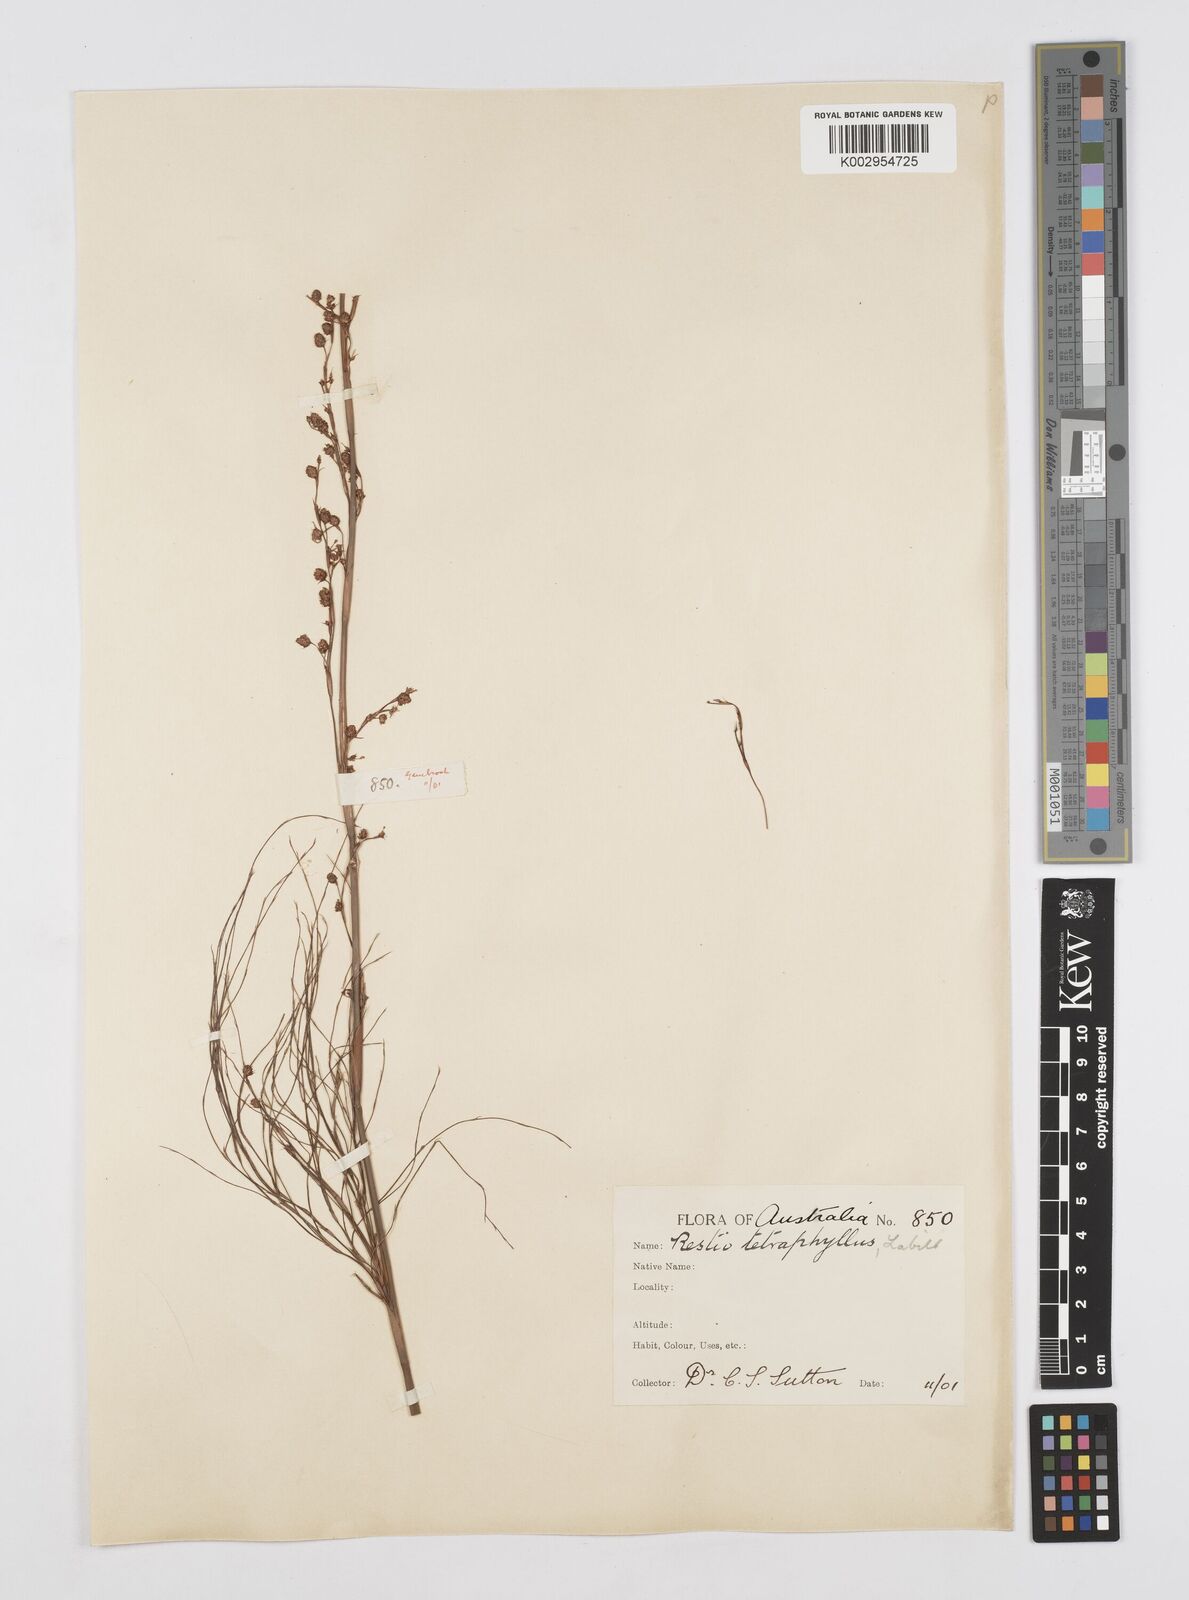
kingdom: Plantae
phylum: Tracheophyta
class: Liliopsida
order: Poales
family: Restionaceae
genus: Baloskion
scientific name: Baloskion tetraphyllum
